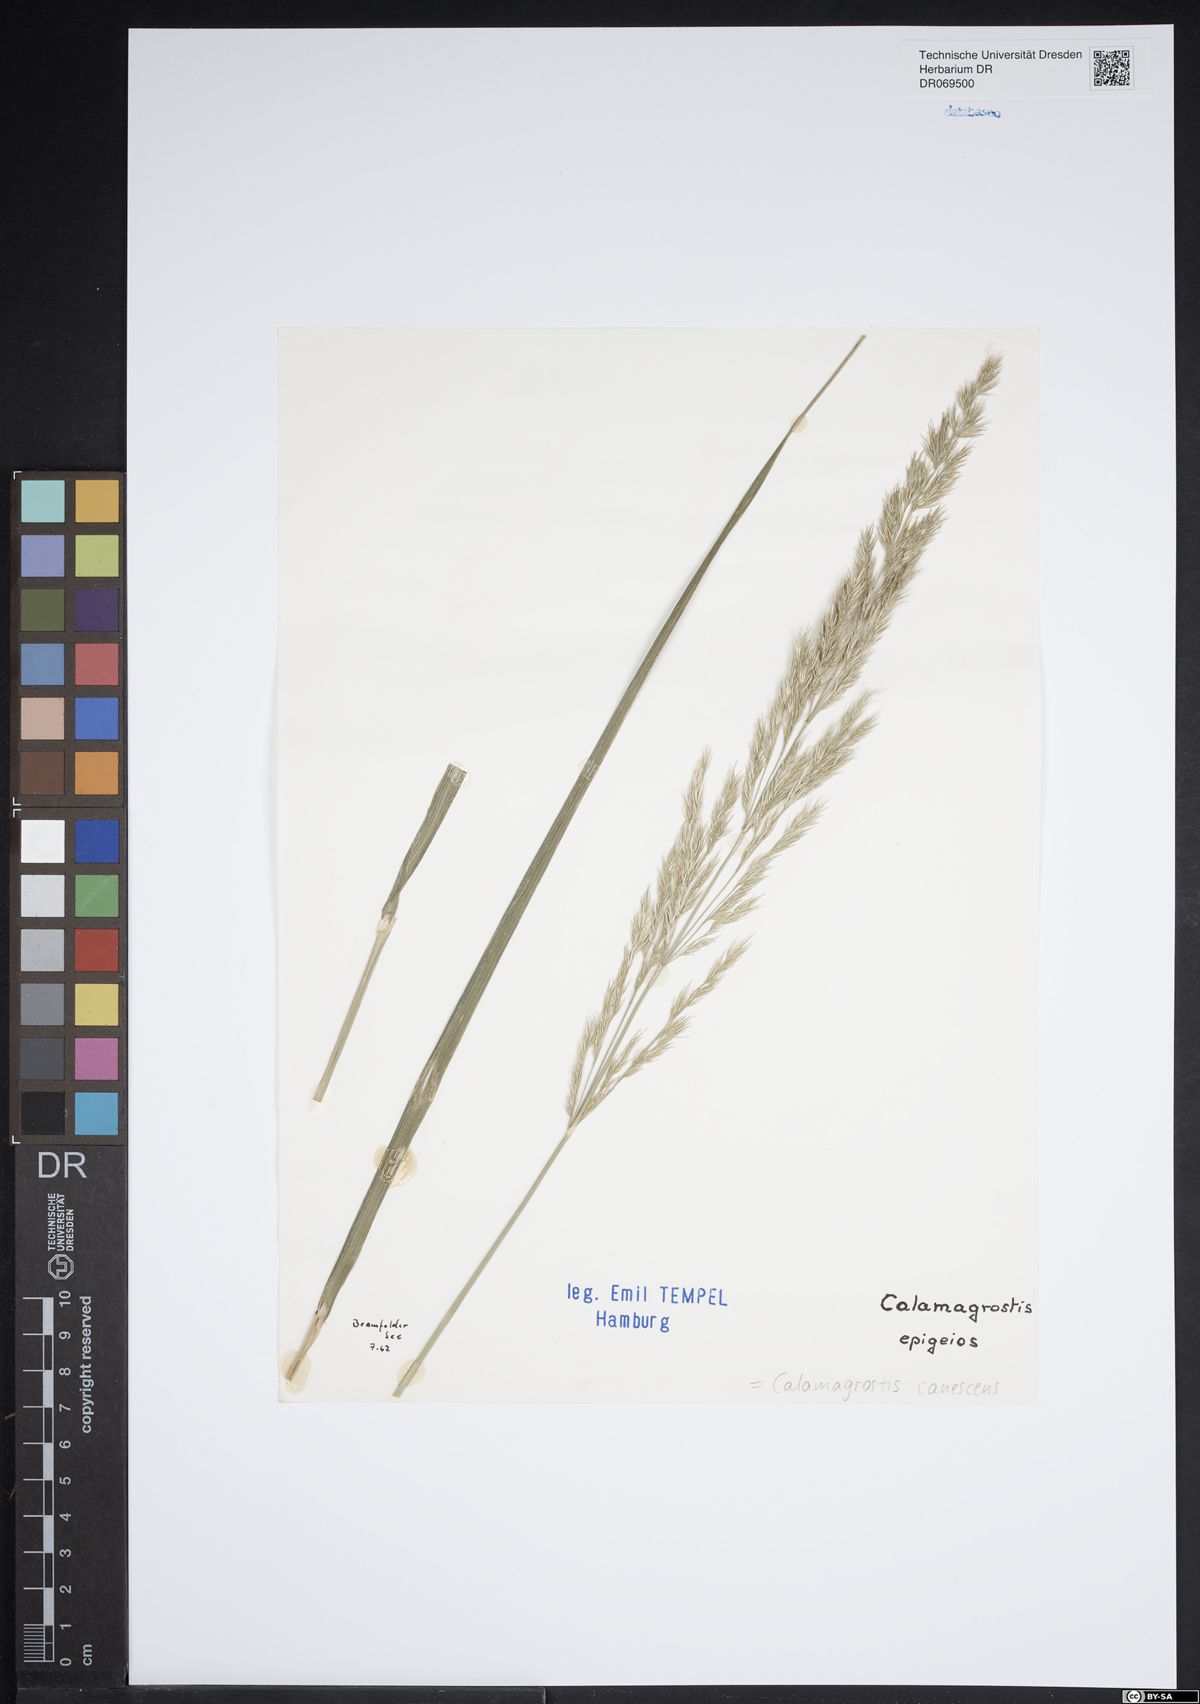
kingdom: Plantae
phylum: Tracheophyta
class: Liliopsida
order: Poales
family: Poaceae
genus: Calamagrostis
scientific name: Calamagrostis canescens
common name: Purple small-reed
